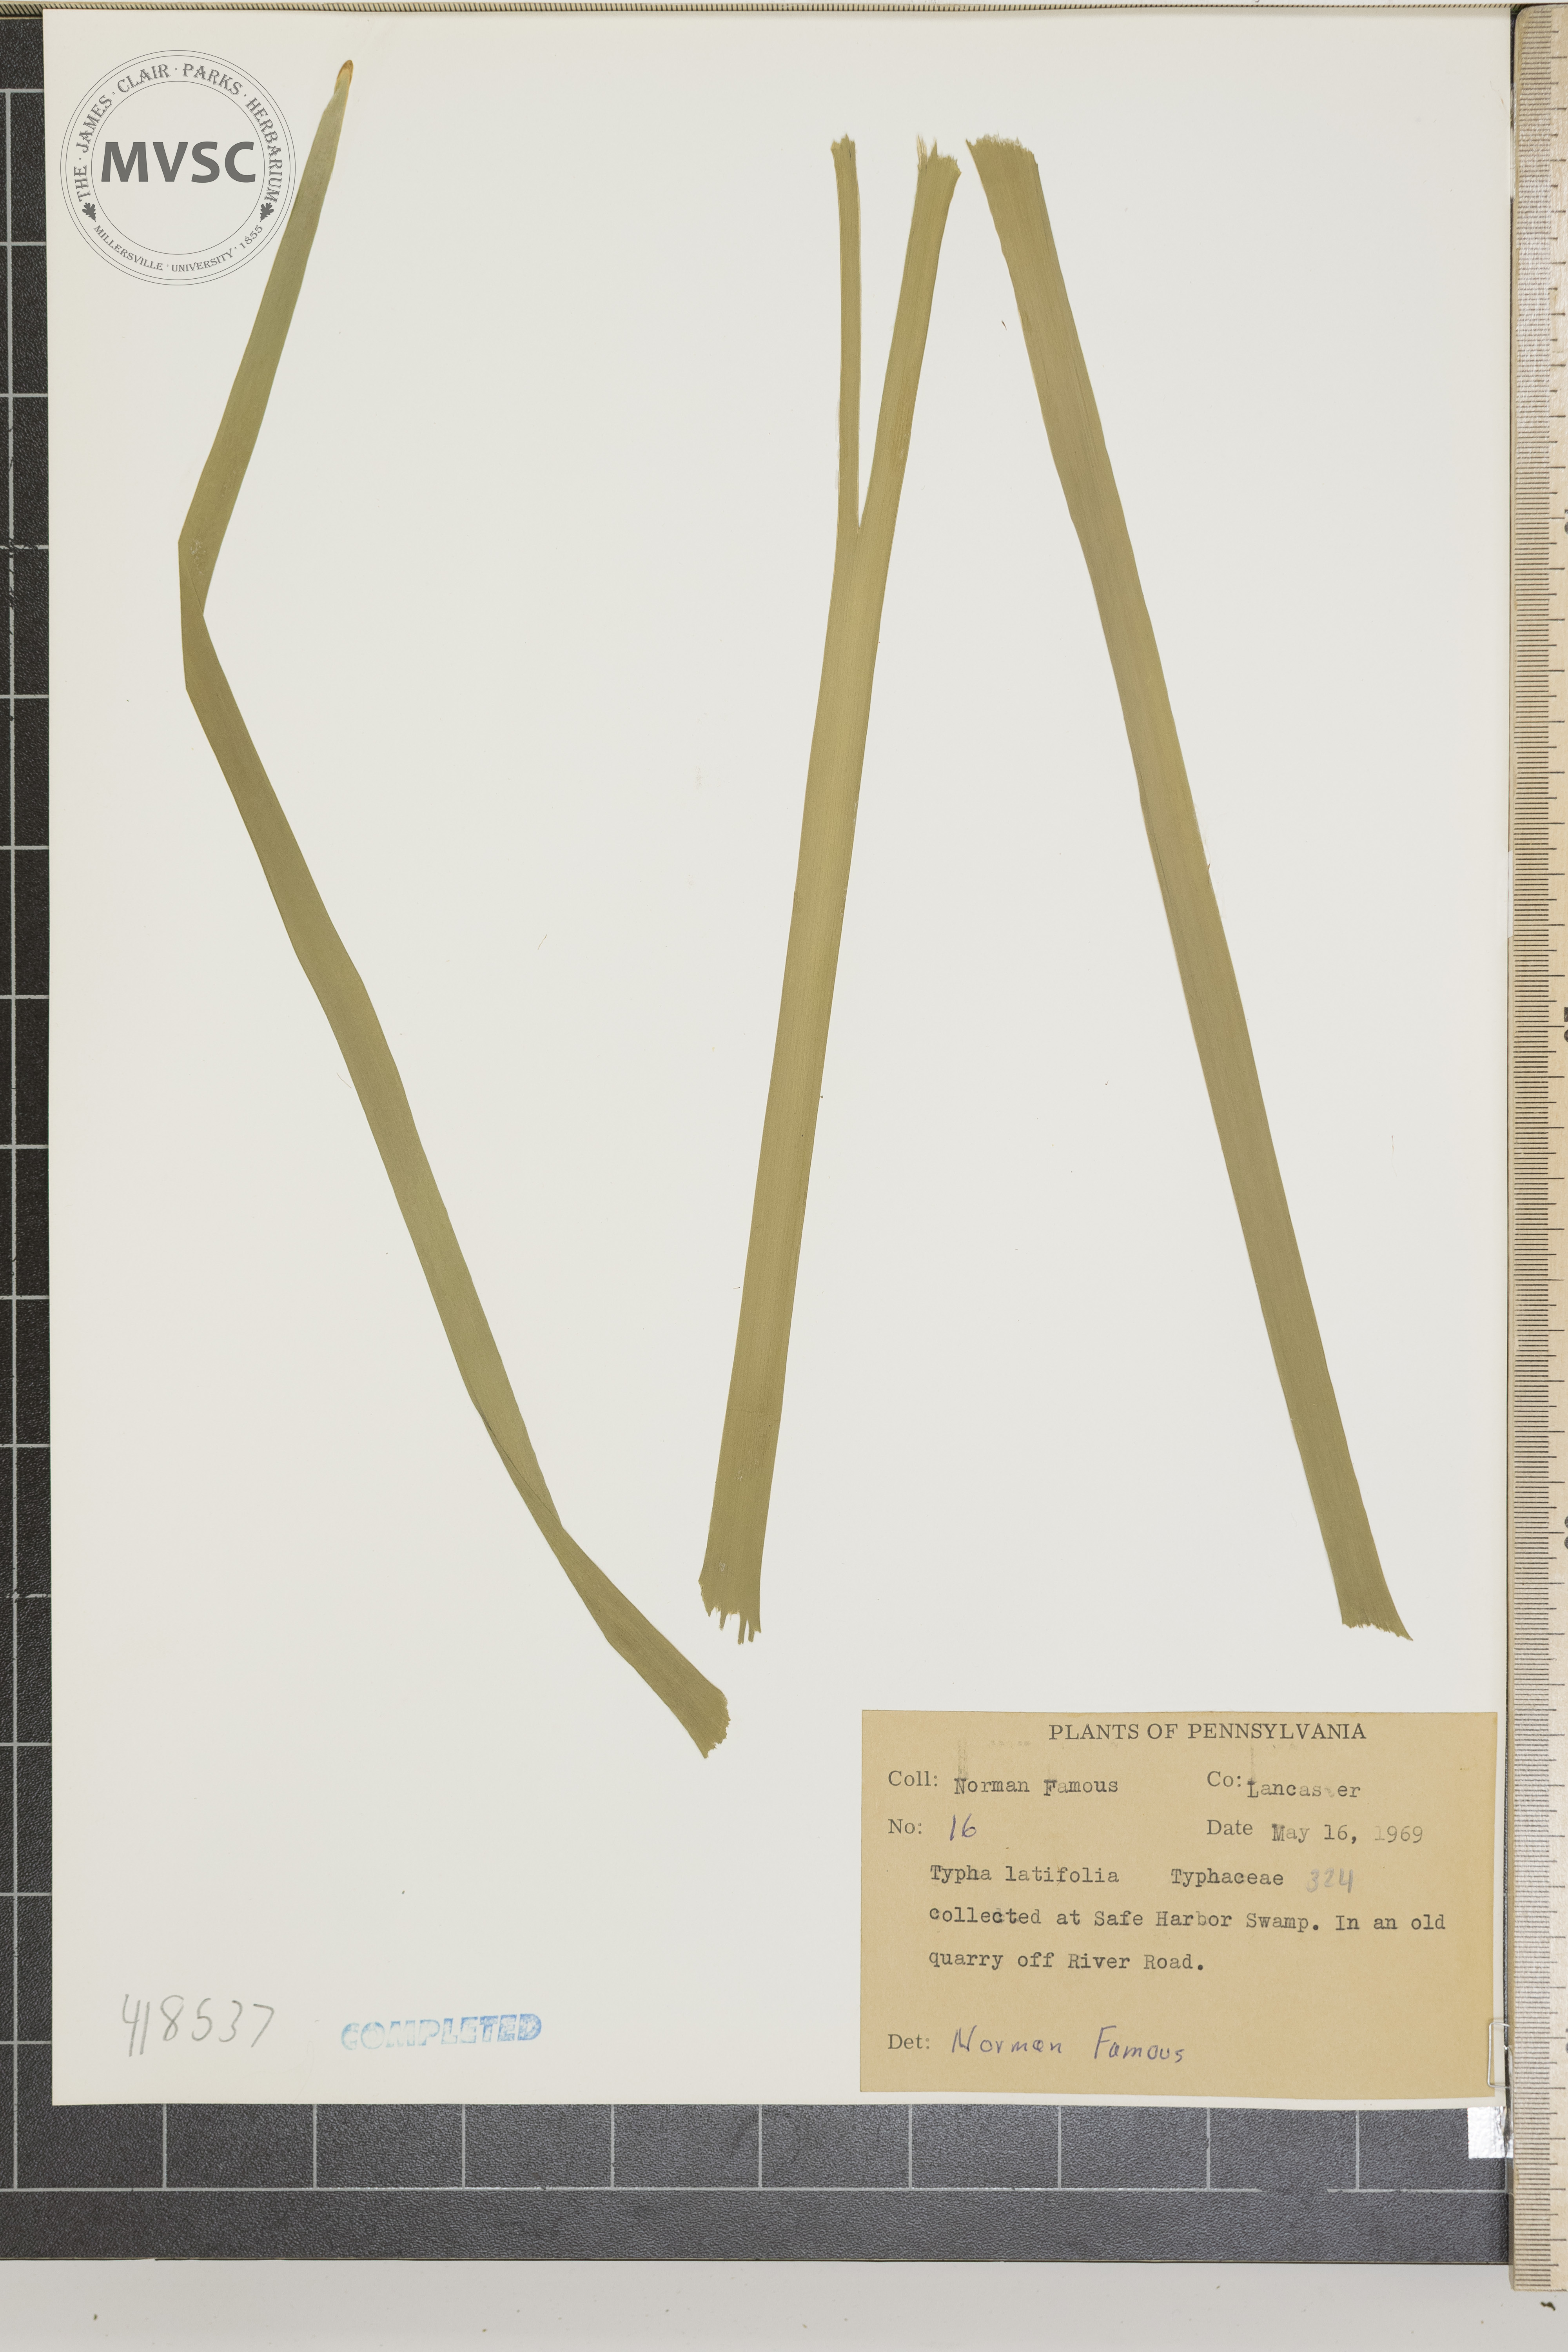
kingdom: Plantae
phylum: Tracheophyta
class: Liliopsida
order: Poales
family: Typhaceae
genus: Typha
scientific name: Typha latifolia
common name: Common Cattail
